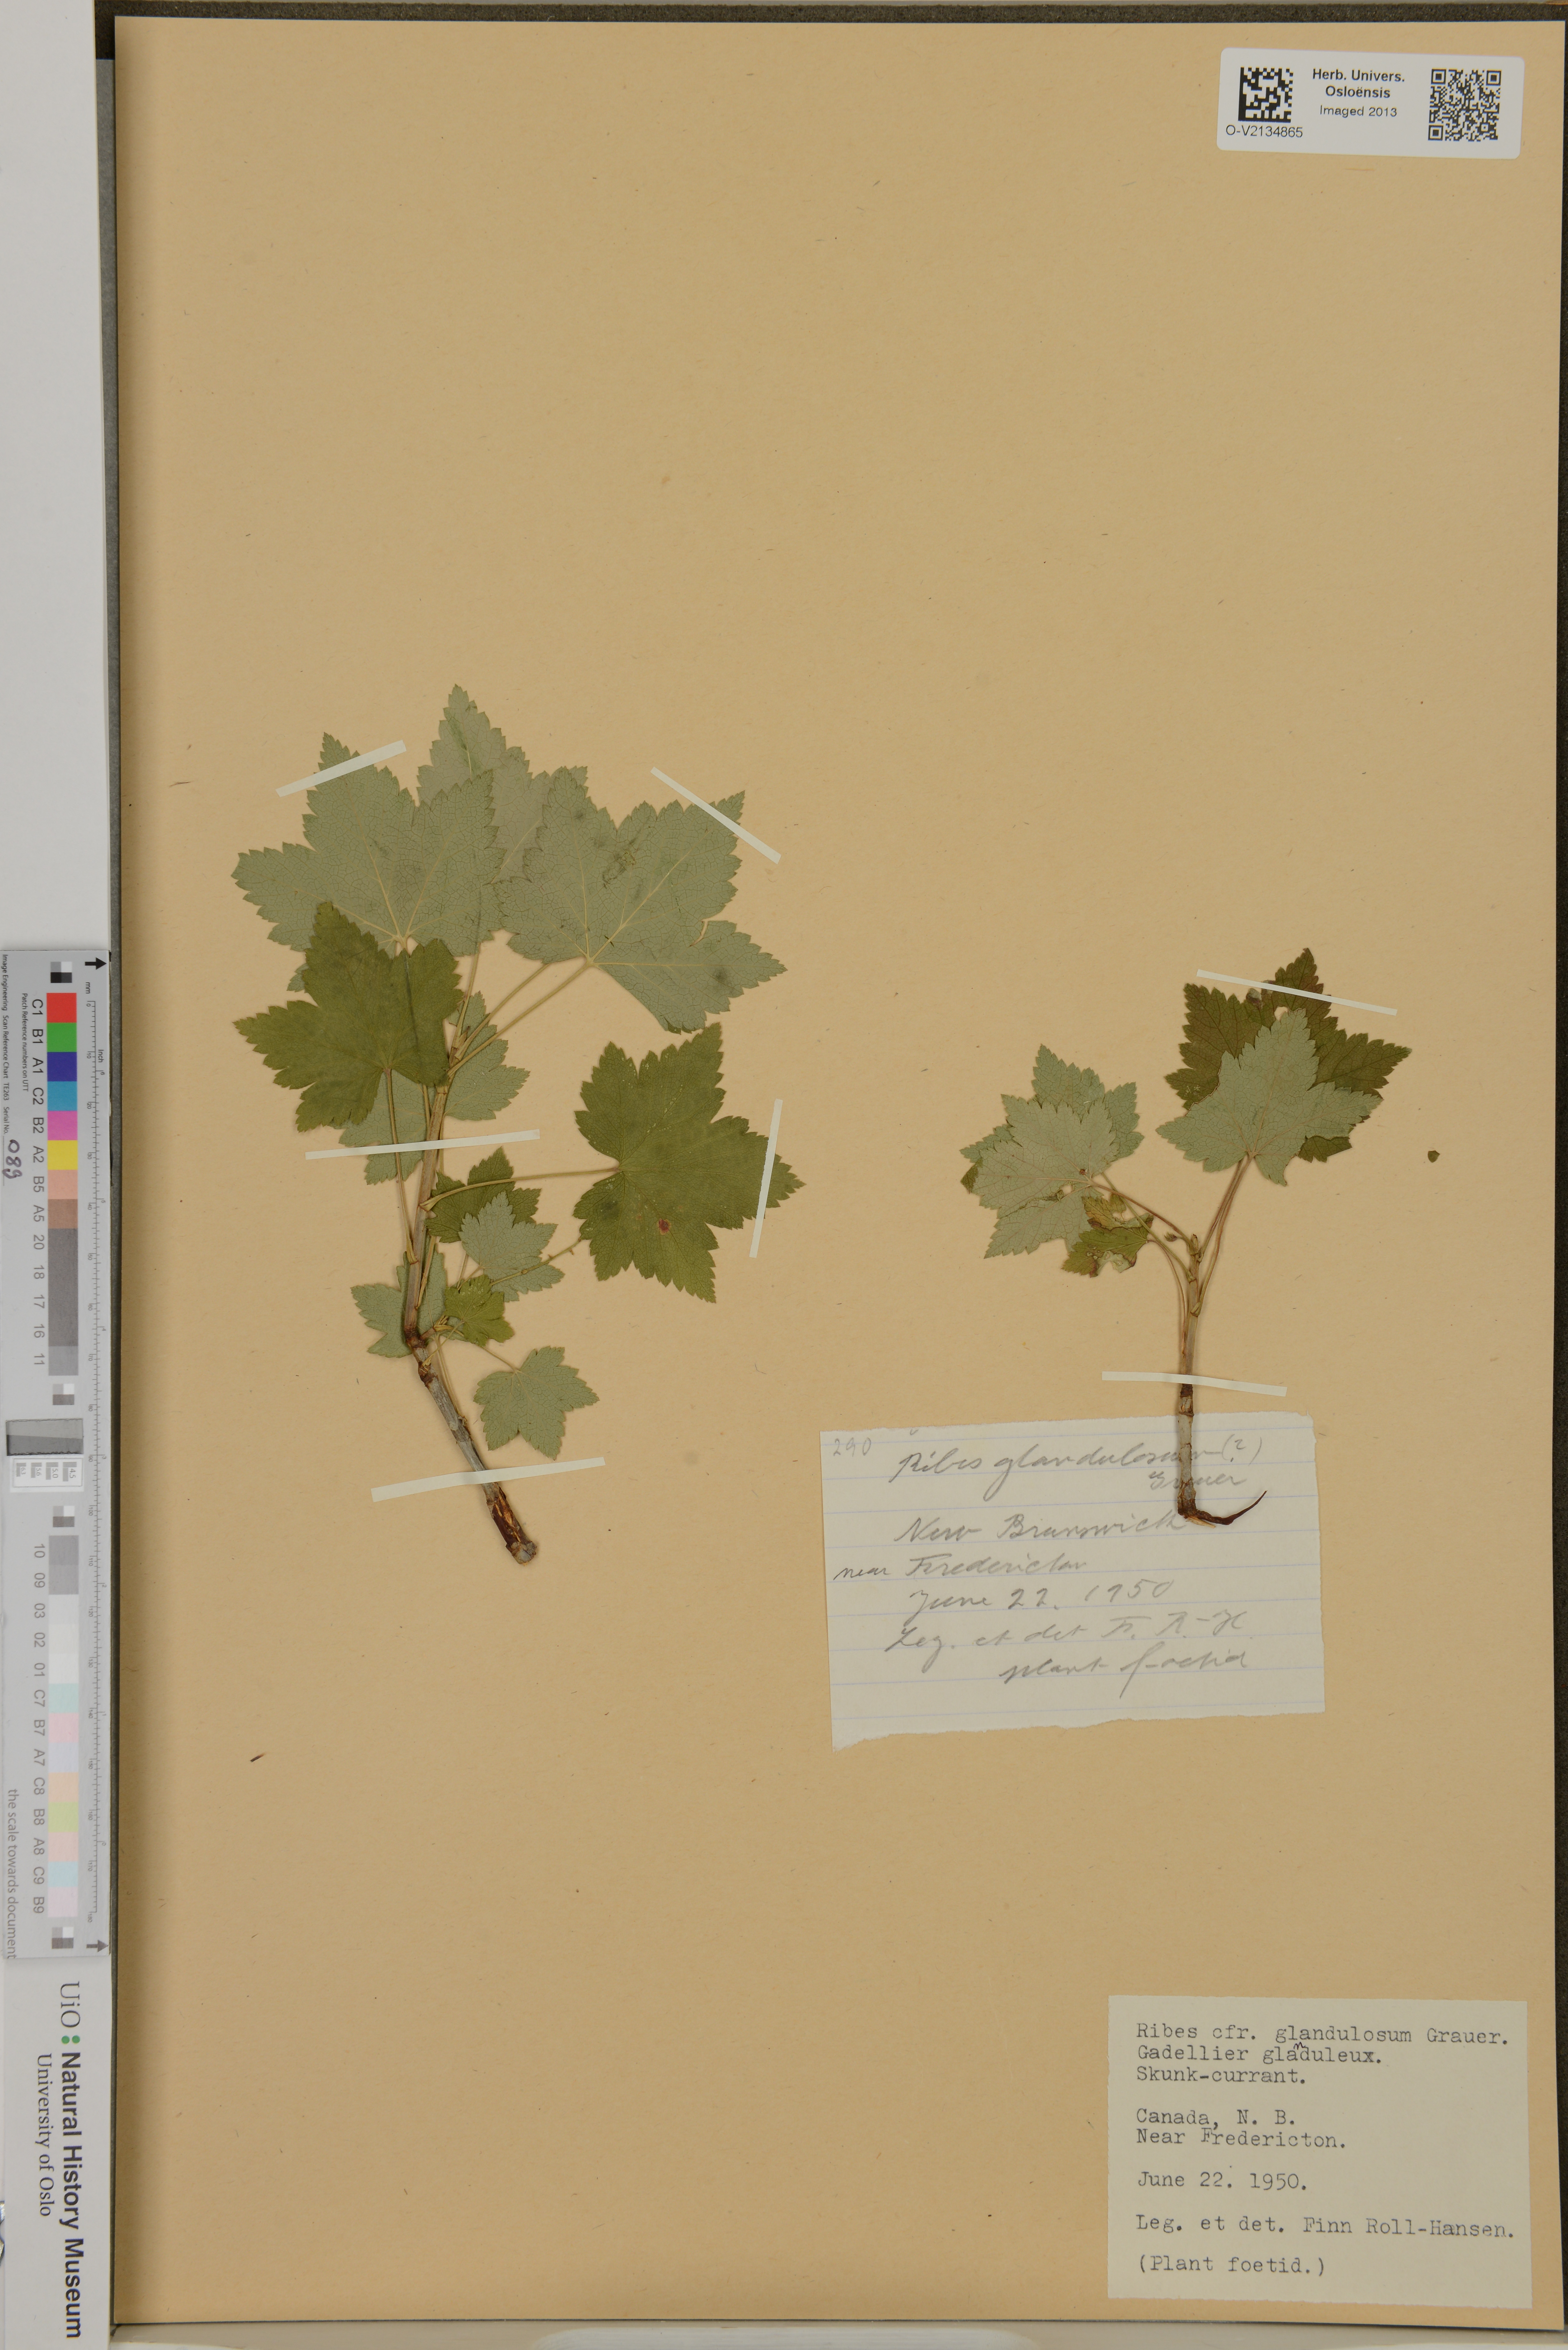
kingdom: Plantae
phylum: Tracheophyta
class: Magnoliopsida
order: Saxifragales
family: Grossulariaceae
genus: Ribes
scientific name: Ribes glandulosum
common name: Skunk currant
